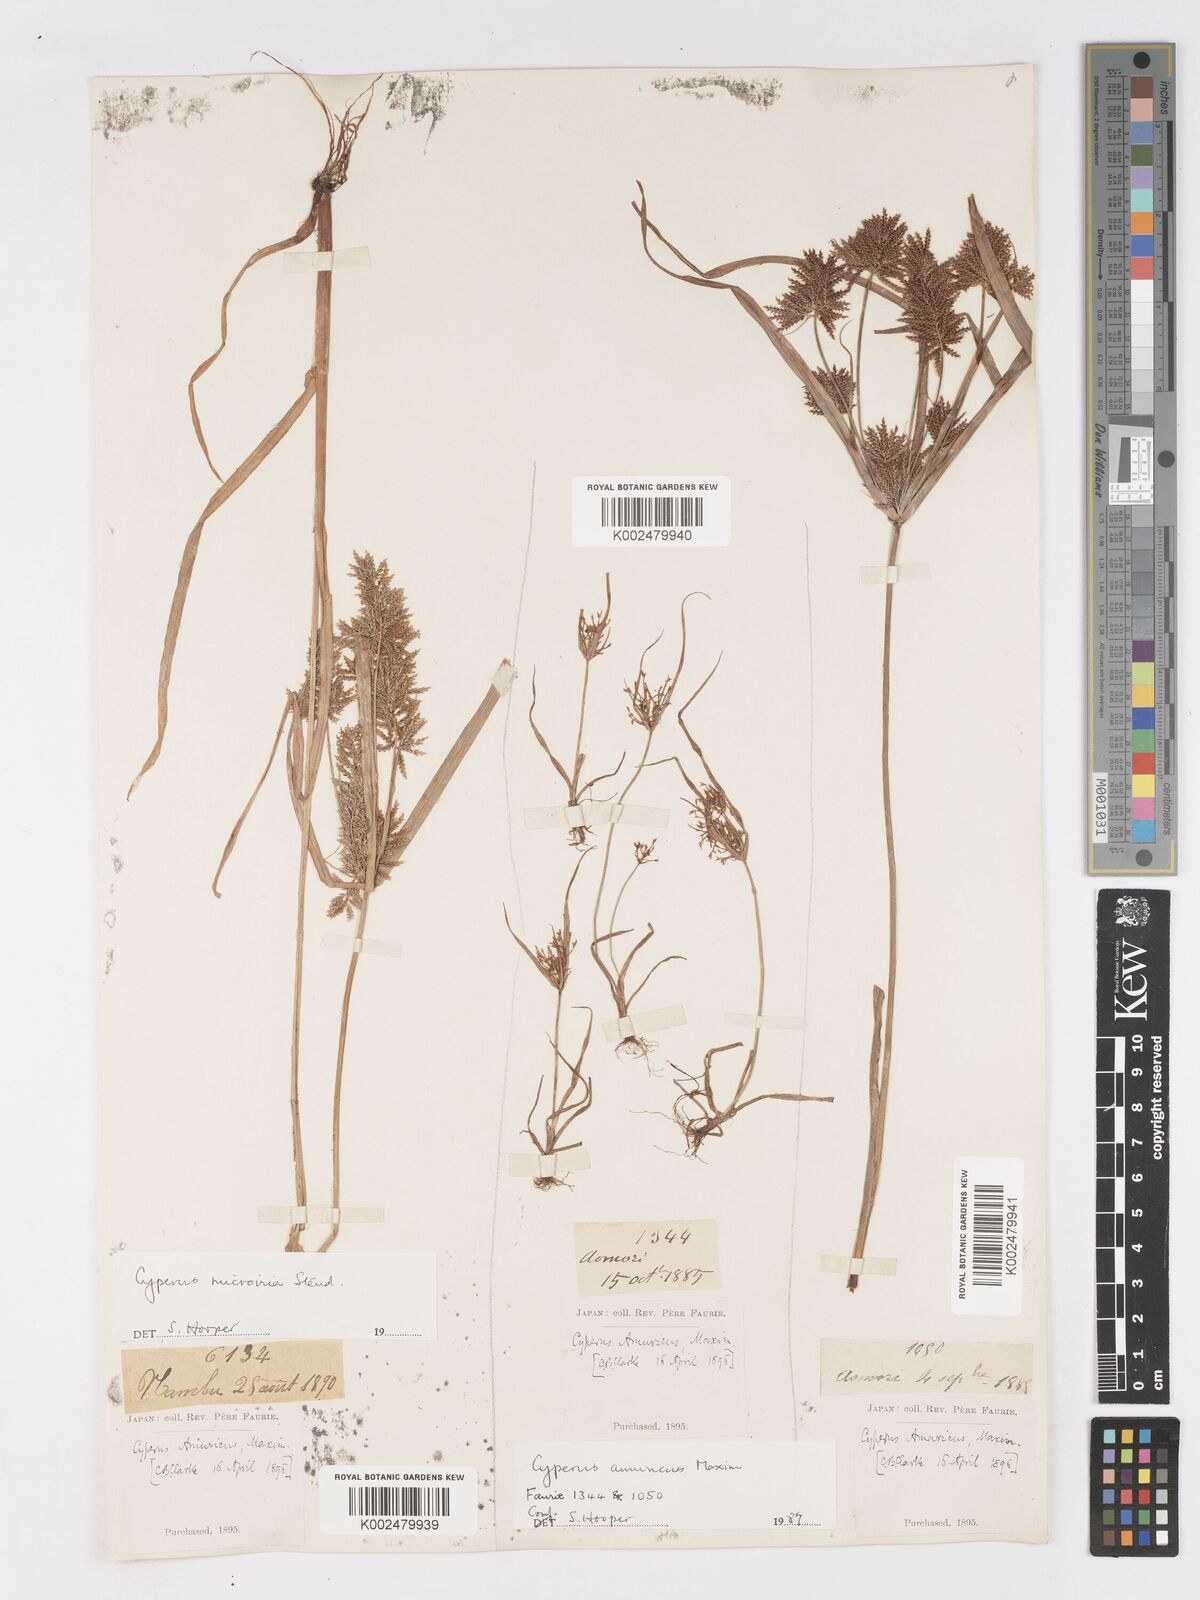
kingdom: Plantae
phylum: Tracheophyta
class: Liliopsida
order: Poales
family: Cyperaceae
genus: Cyperus
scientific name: Cyperus amuricus
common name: Asian flatsedge
